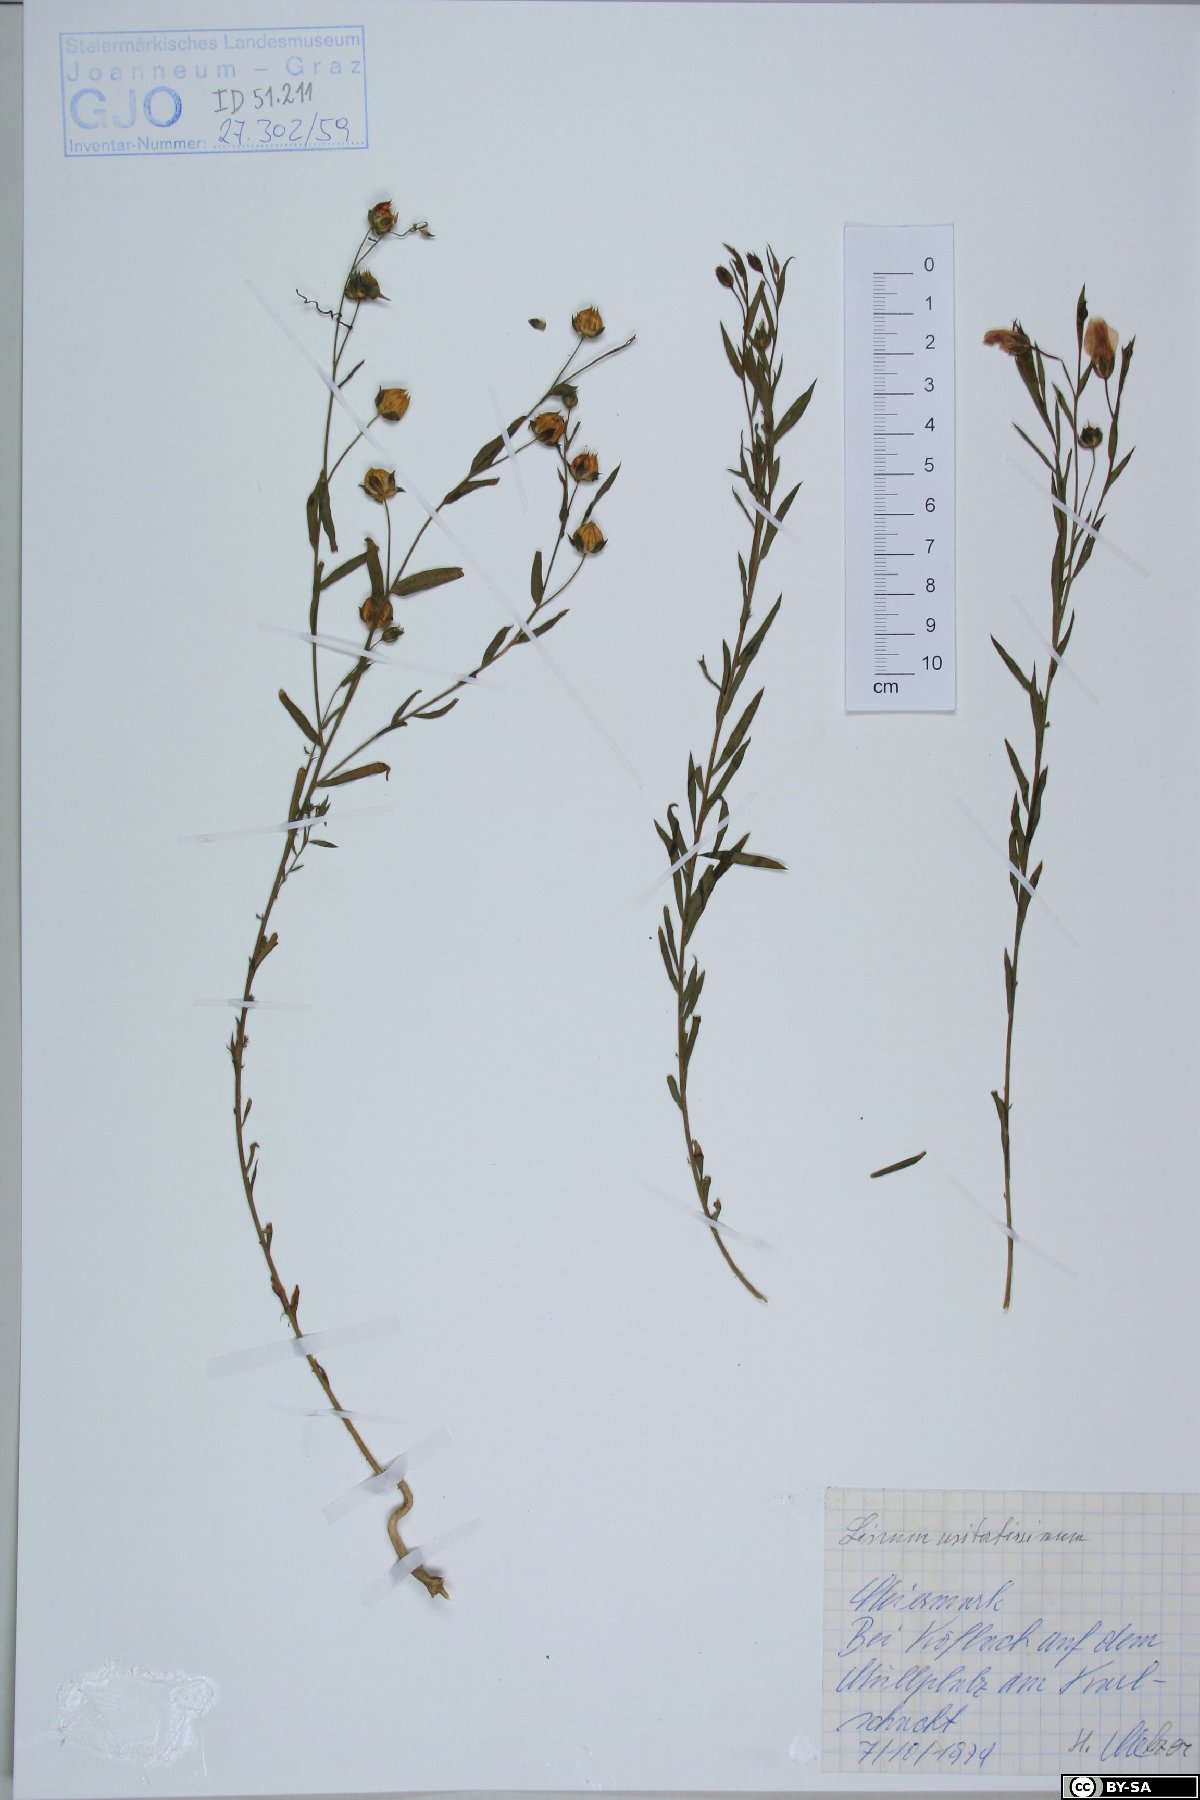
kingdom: Plantae
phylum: Tracheophyta
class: Magnoliopsida
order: Malpighiales
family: Linaceae
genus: Linum
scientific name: Linum usitatissimum
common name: Flax
